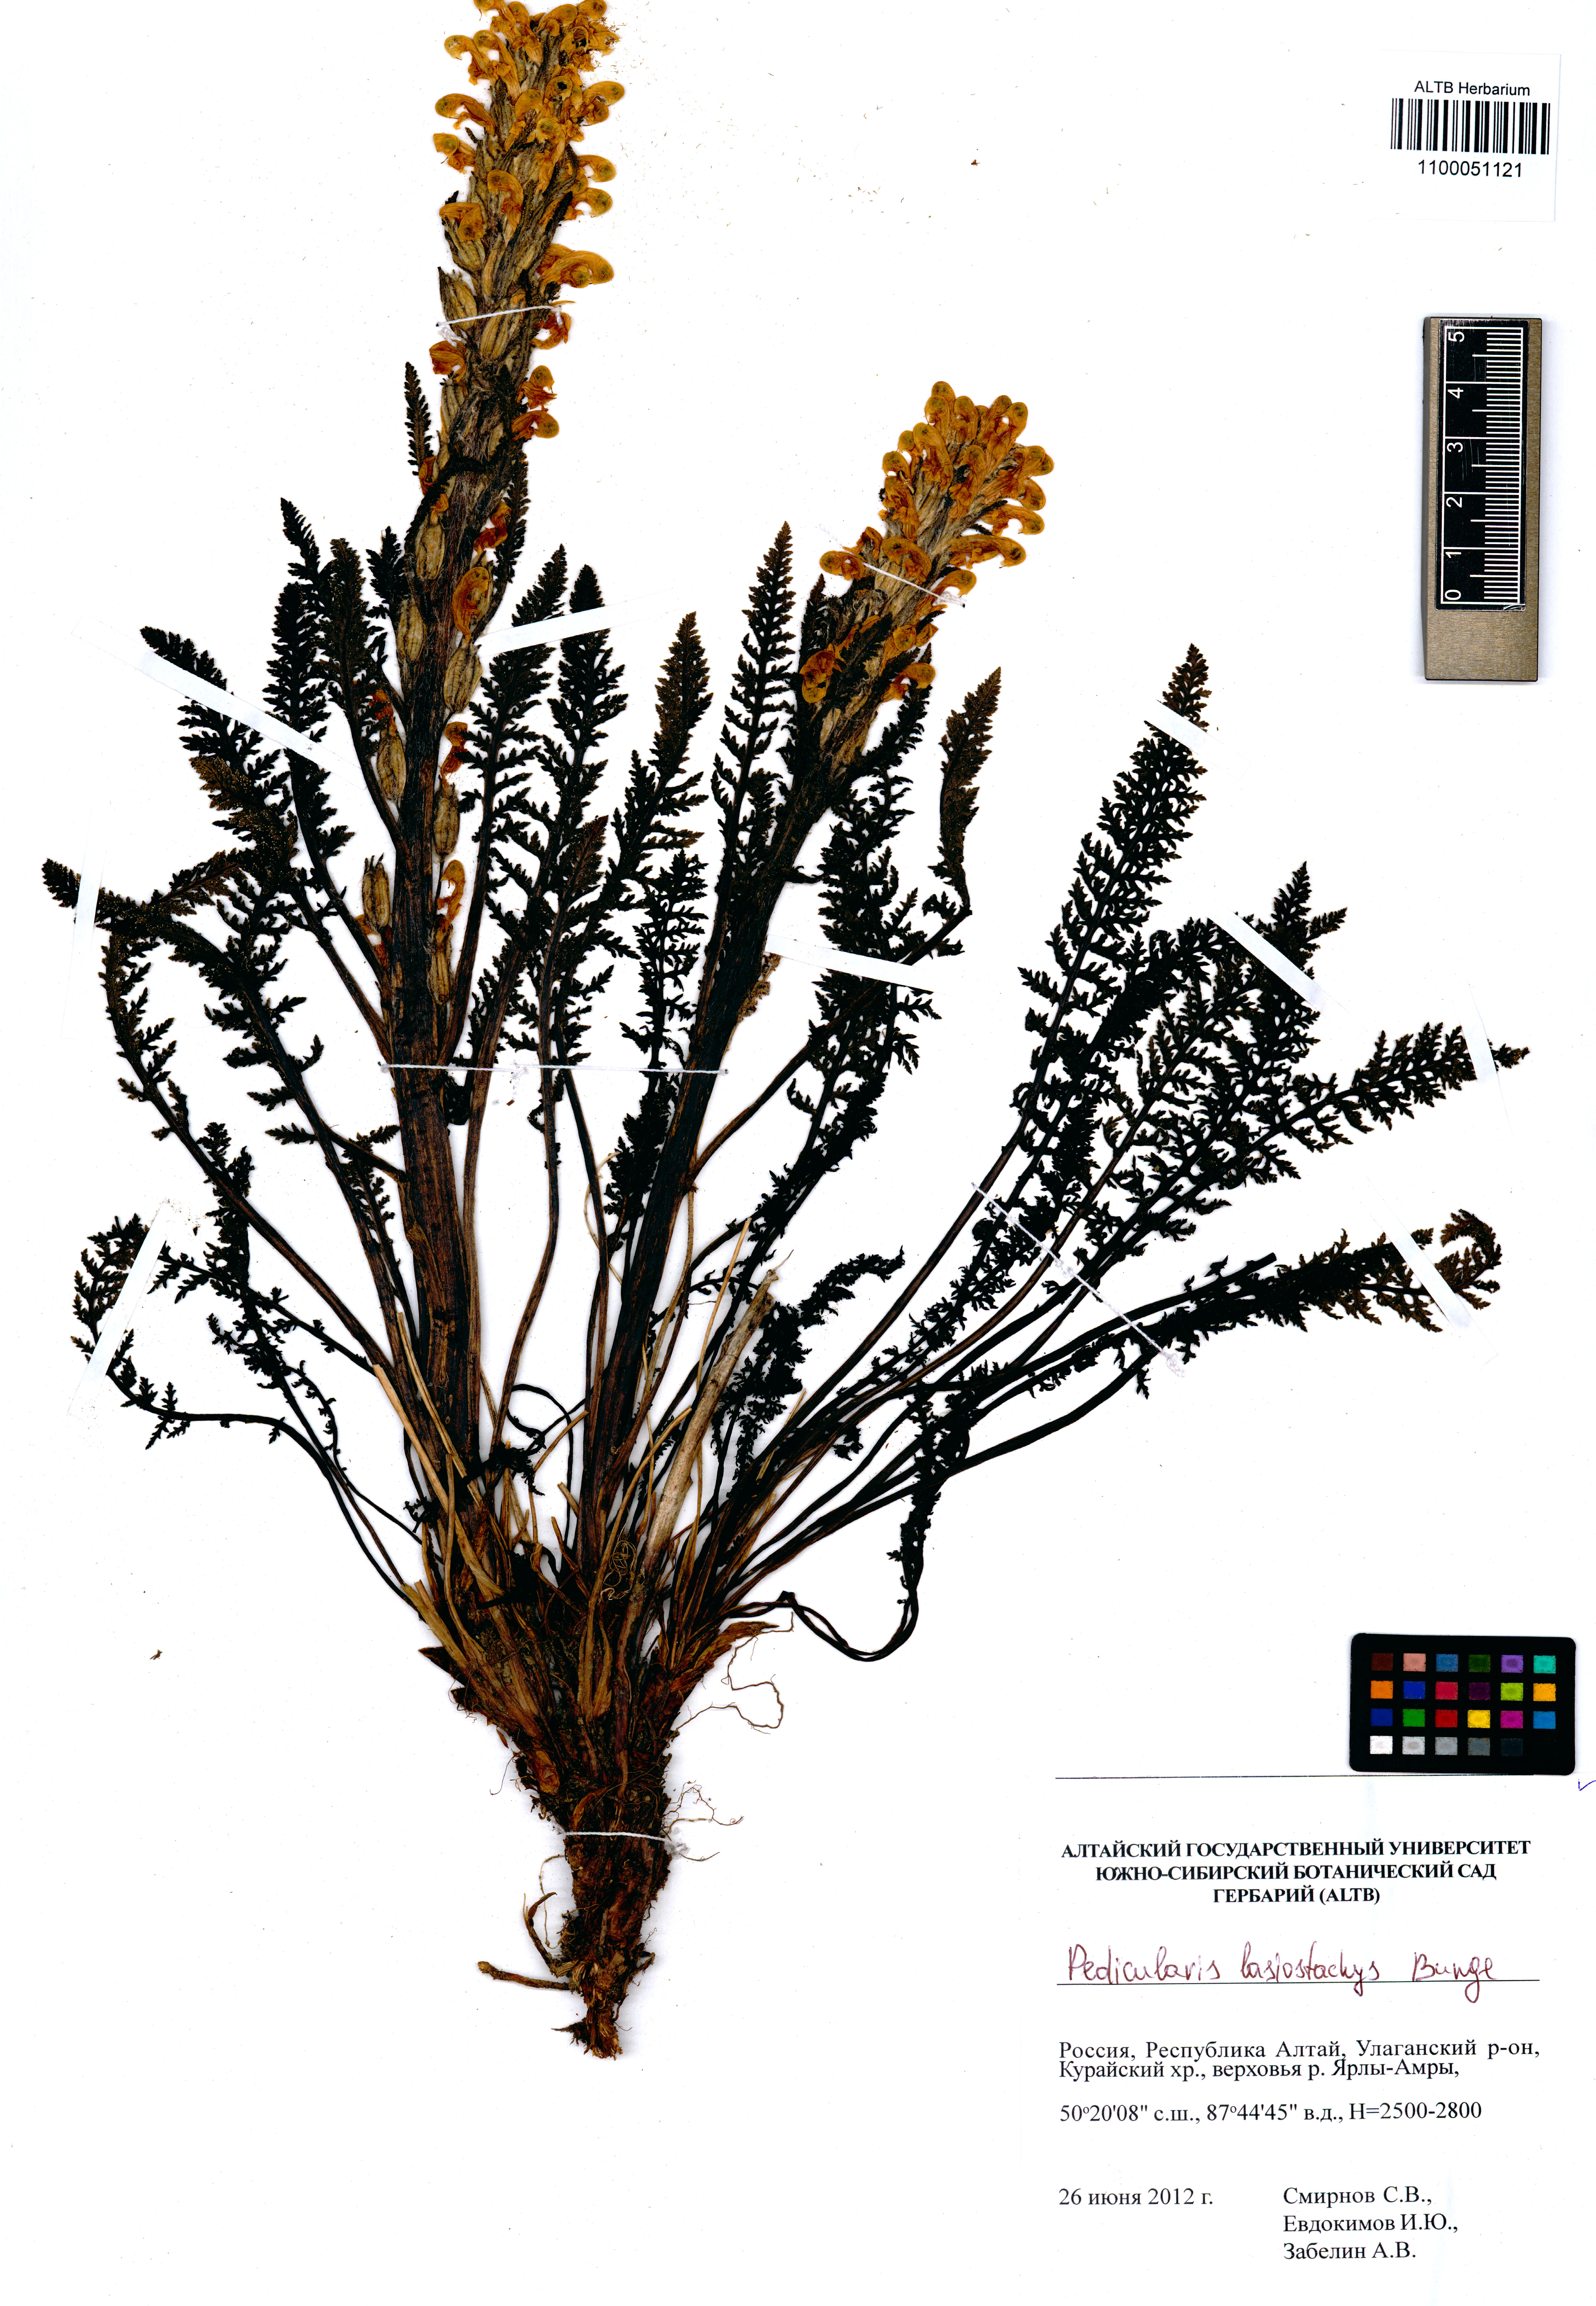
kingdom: Plantae
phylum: Tracheophyta
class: Magnoliopsida
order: Lamiales
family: Orobanchaceae
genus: Pedicularis
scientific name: Pedicularis lasiostachys
